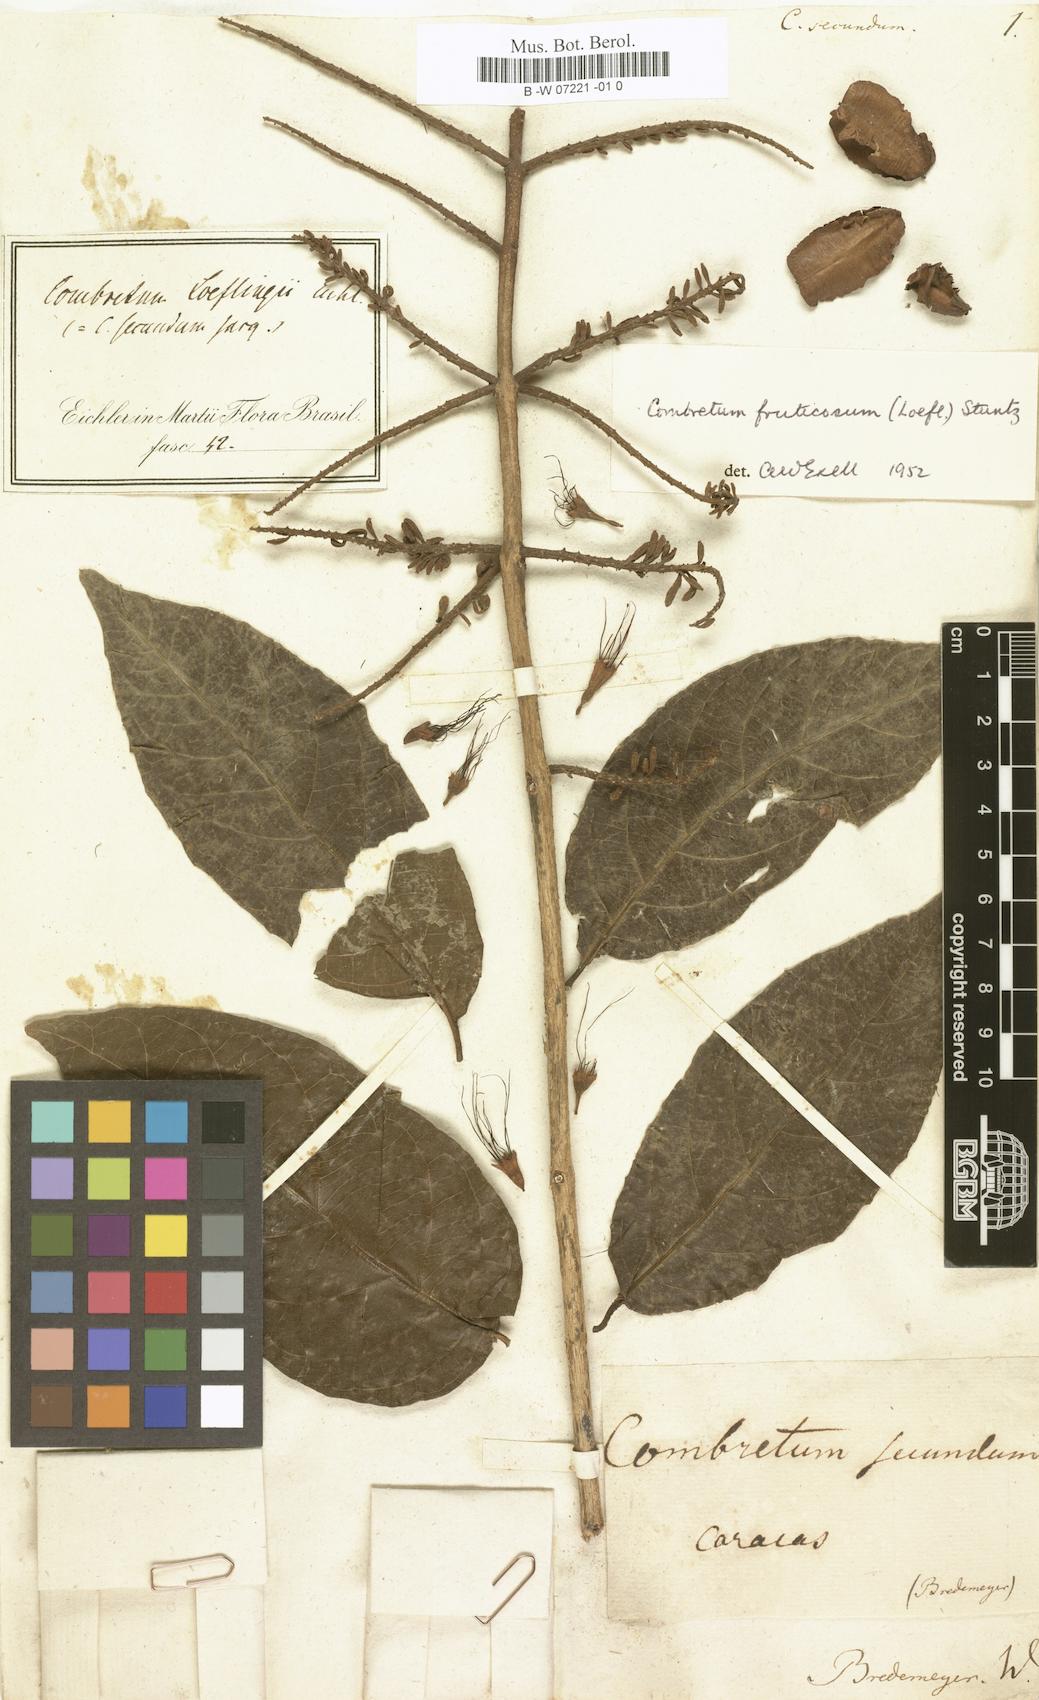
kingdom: Plantae
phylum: Tracheophyta
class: Magnoliopsida
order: Myrtales
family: Combretaceae
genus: Combretum
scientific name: Combretum
